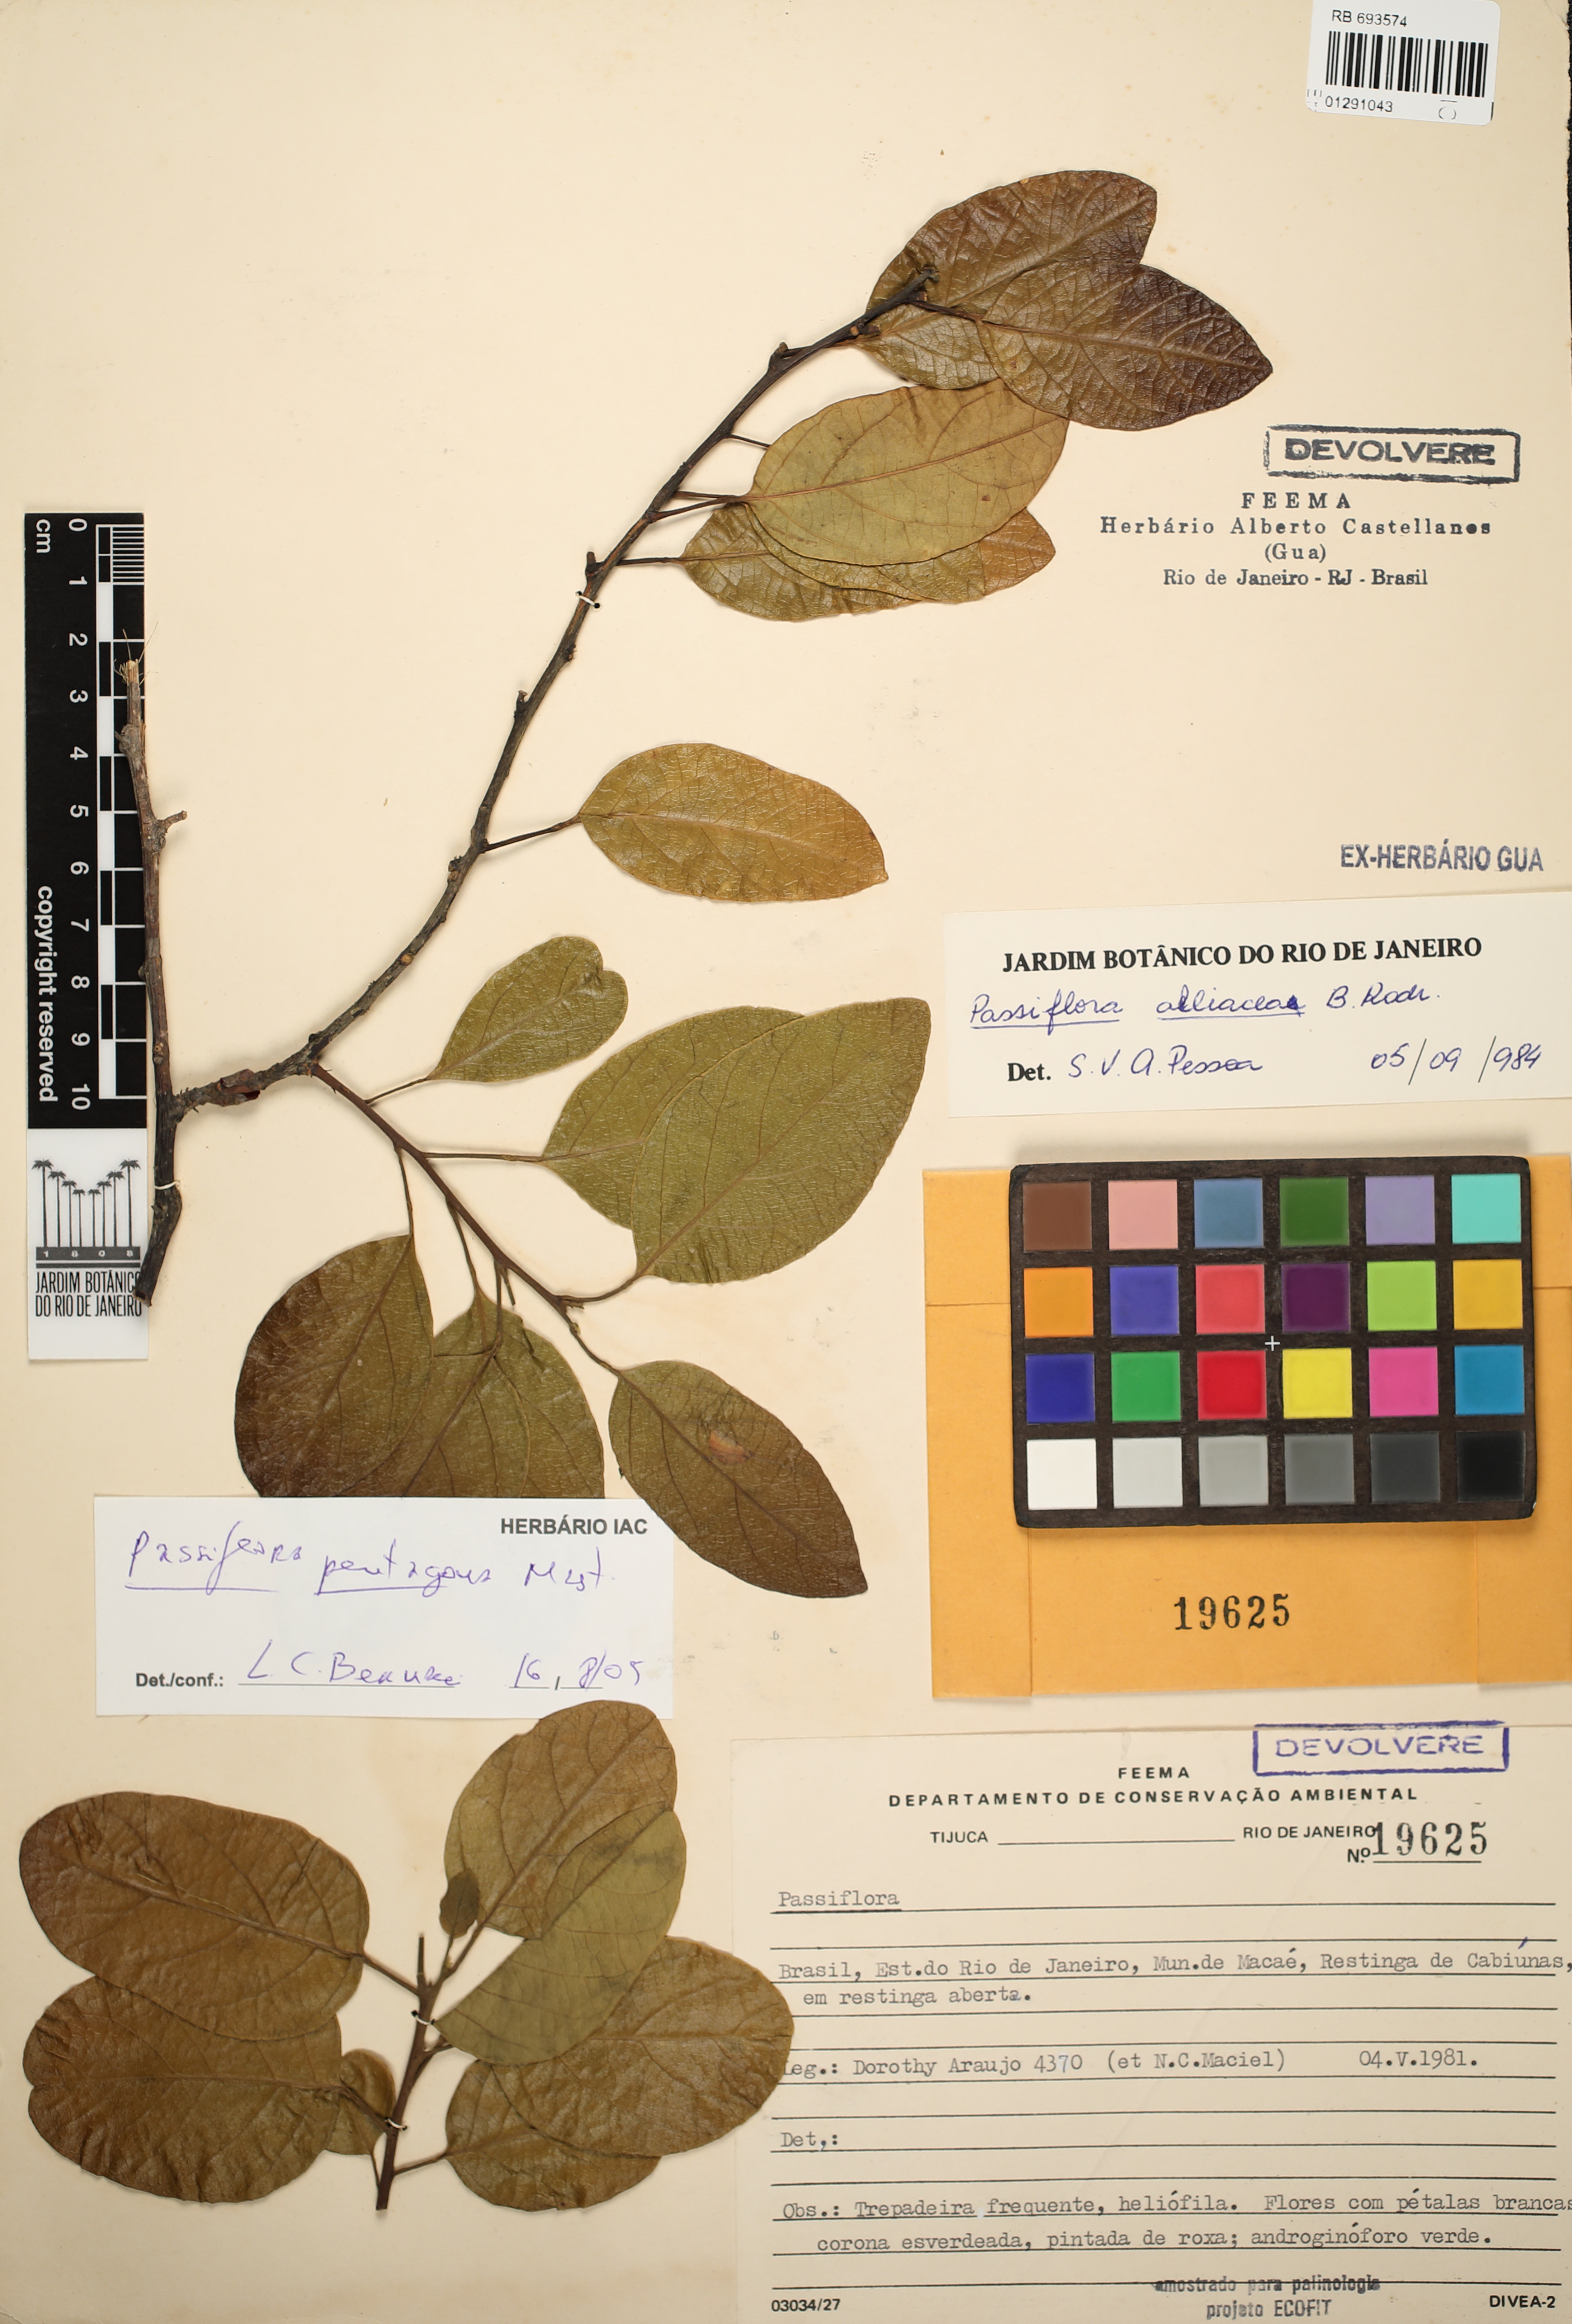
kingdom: Plantae
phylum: Tracheophyta
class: Magnoliopsida
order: Malpighiales
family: Passifloraceae
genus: Passiflora
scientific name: Passiflora pentagona
